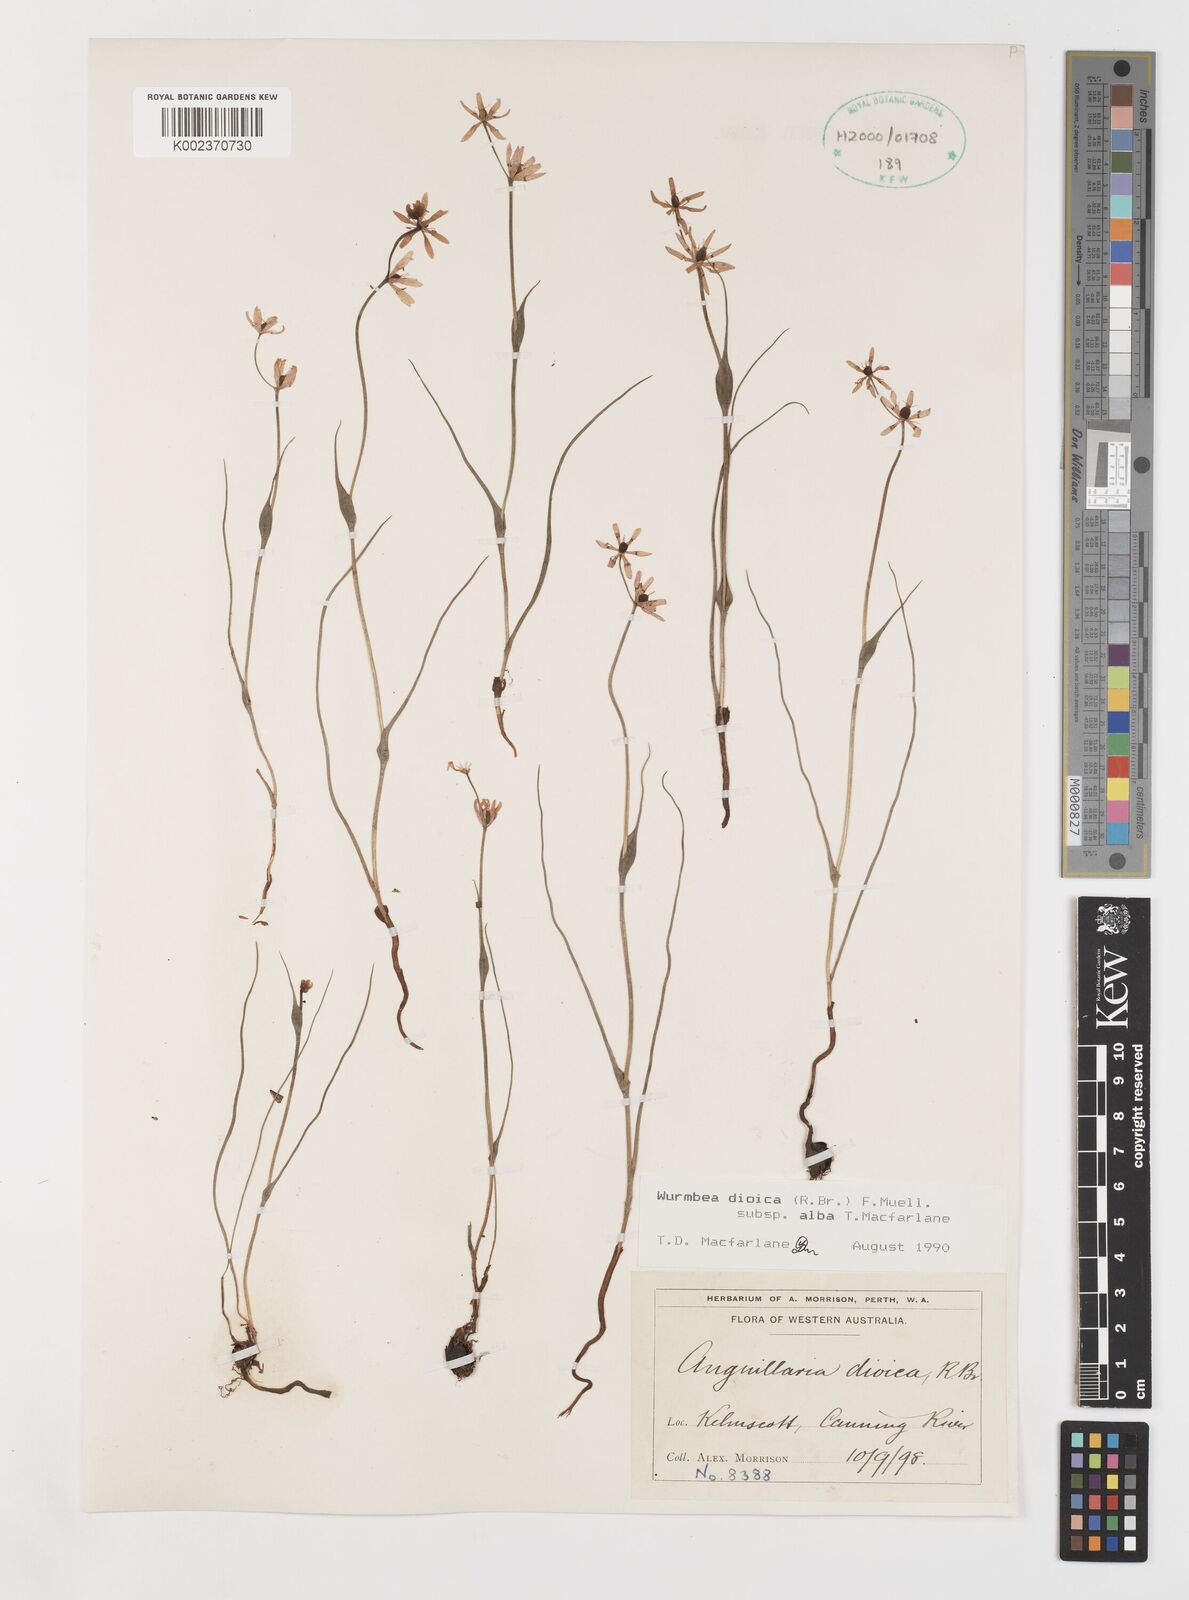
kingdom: Plantae
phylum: Tracheophyta
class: Liliopsida
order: Liliales
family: Colchicaceae
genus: Wurmbea
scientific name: Wurmbea dioica
